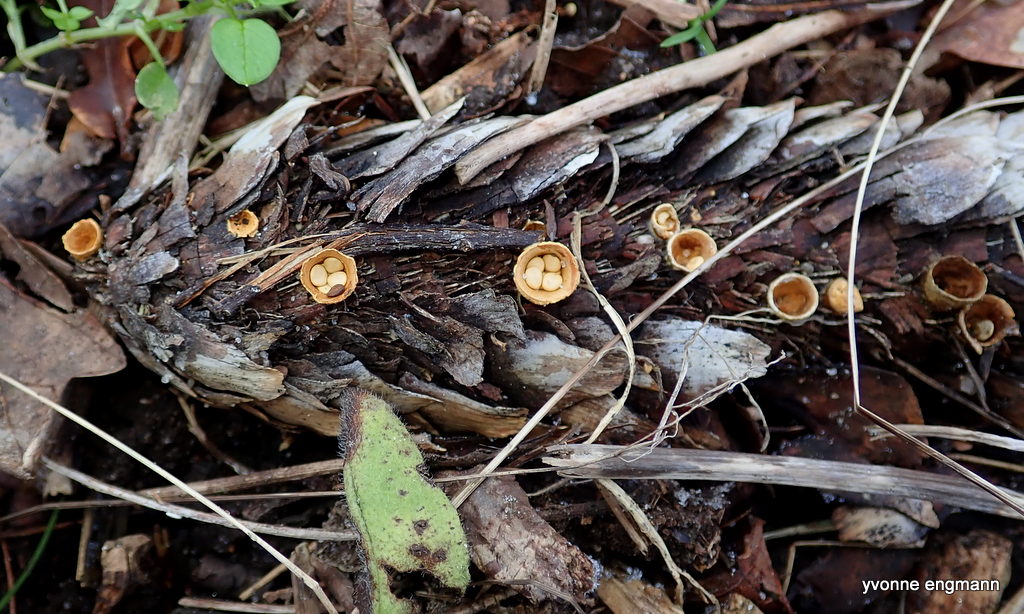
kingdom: Fungi
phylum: Basidiomycota
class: Agaricomycetes
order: Agaricales
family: Nidulariaceae
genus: Crucibulum
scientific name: Crucibulum crucibuliforme
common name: krukkesvamp
